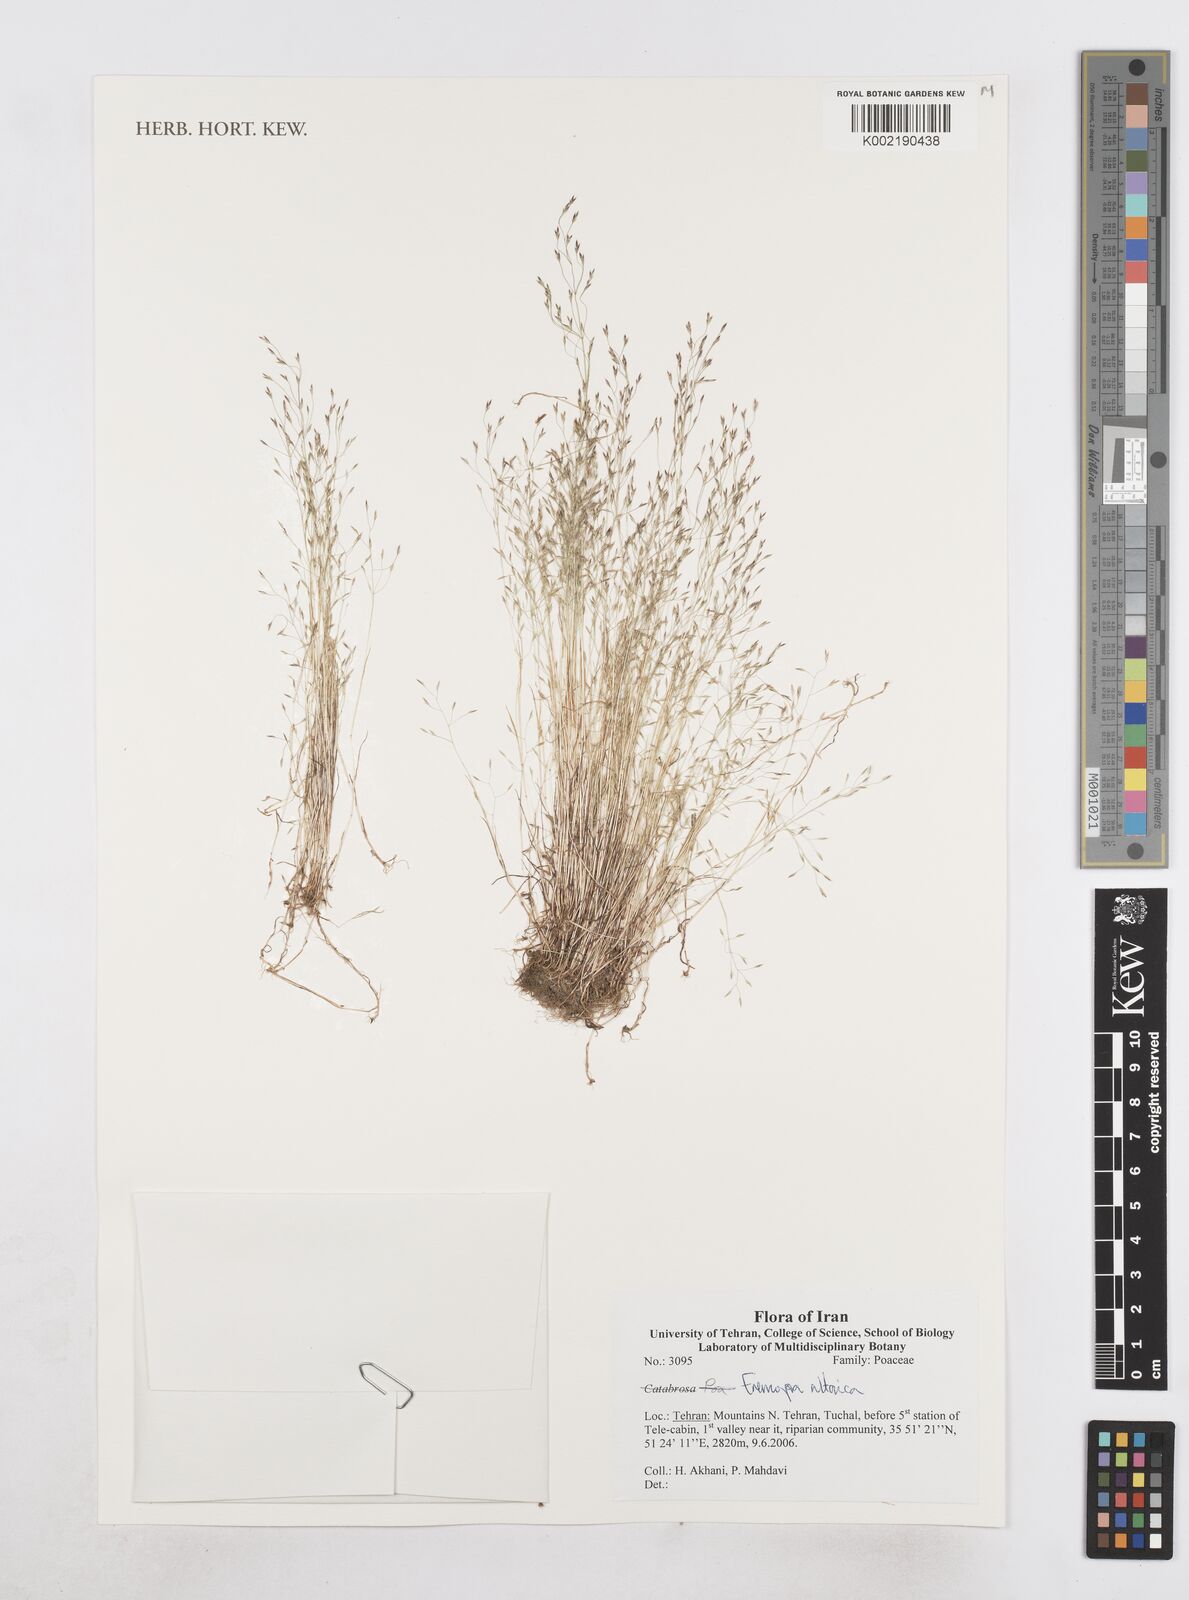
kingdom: Plantae
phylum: Tracheophyta
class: Liliopsida
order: Poales
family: Poaceae
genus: Poa
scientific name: Poa diaphora
